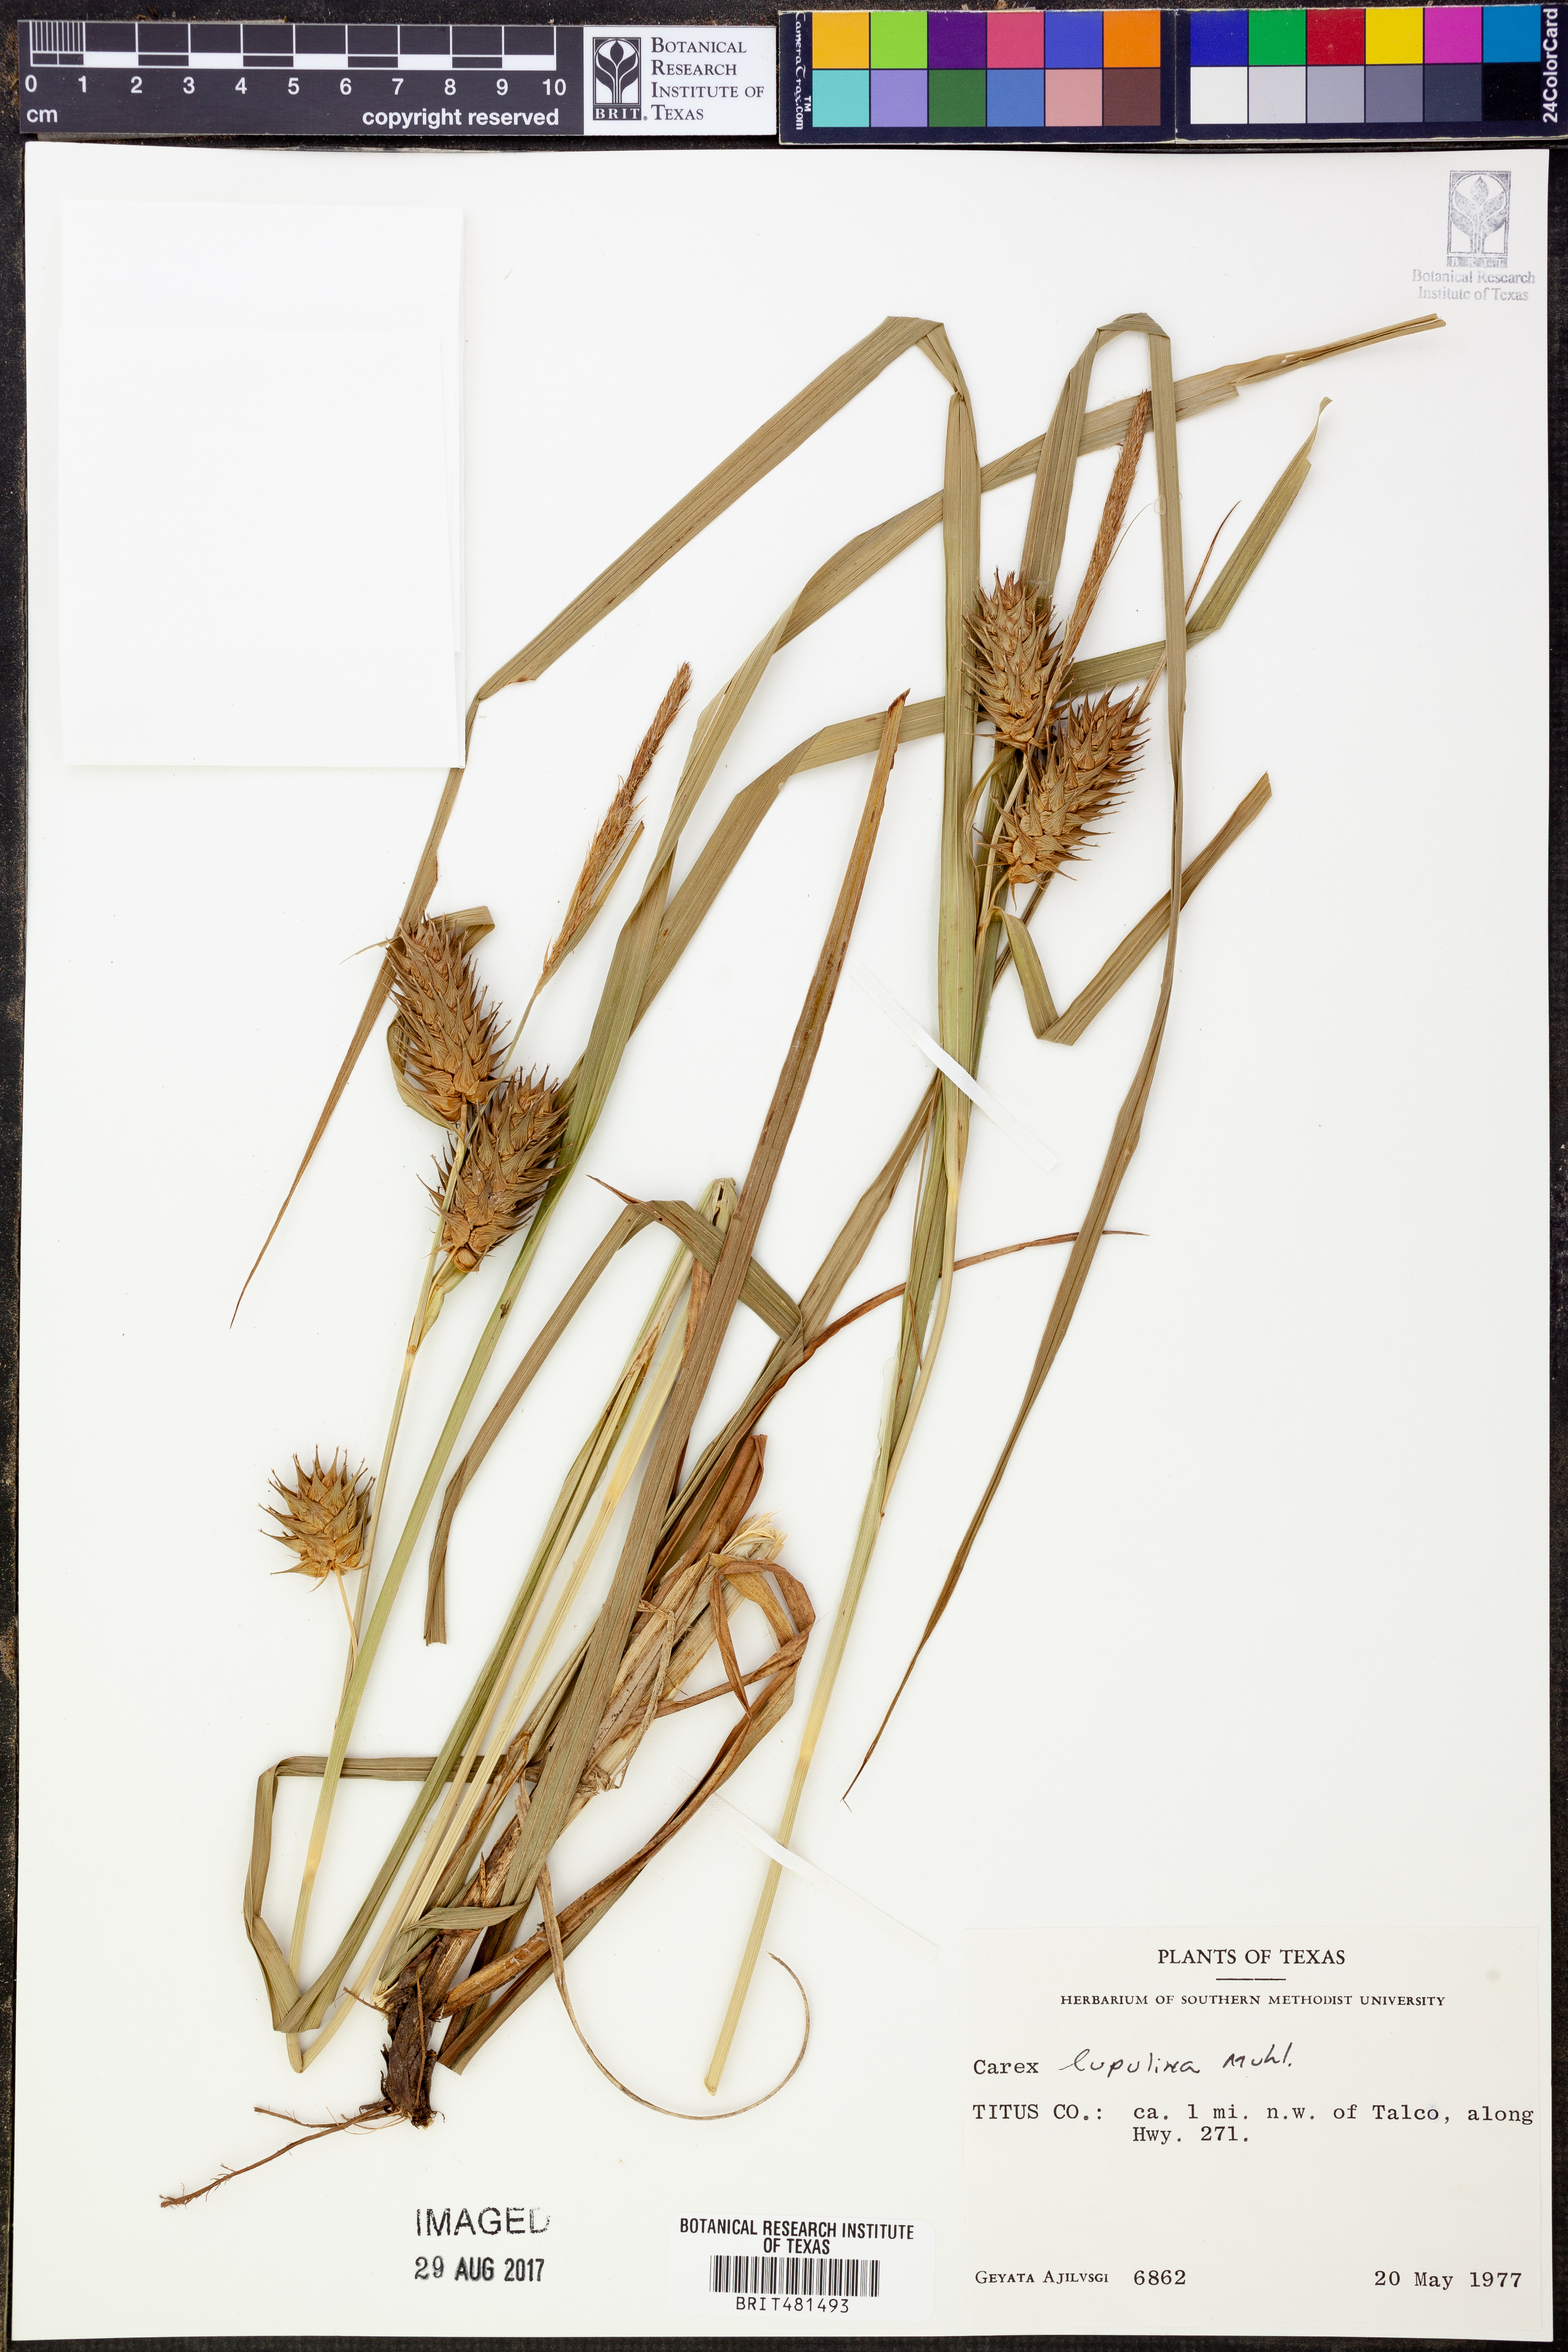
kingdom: Plantae
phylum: Tracheophyta
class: Liliopsida
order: Poales
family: Cyperaceae
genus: Carex
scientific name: Carex lupulina
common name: Hop sedge
